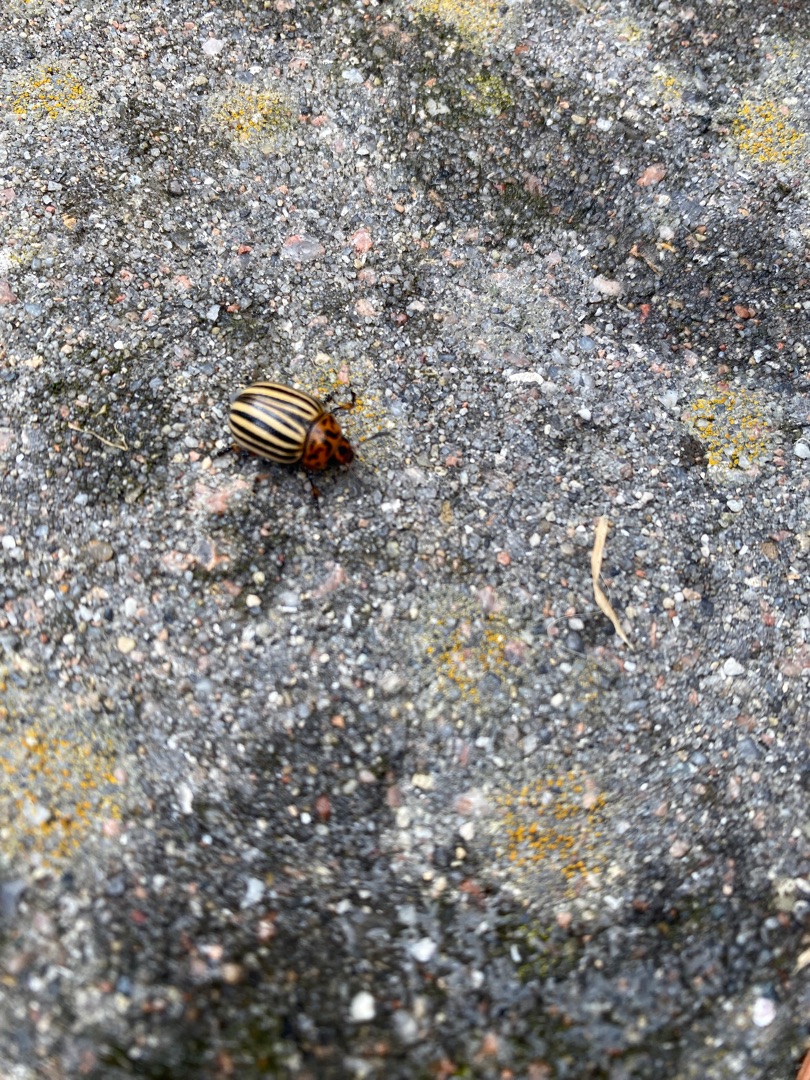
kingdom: Animalia
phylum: Arthropoda
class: Insecta
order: Coleoptera
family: Chrysomelidae
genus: Leptinotarsa
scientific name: Leptinotarsa decemlineata
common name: Coloradobille
